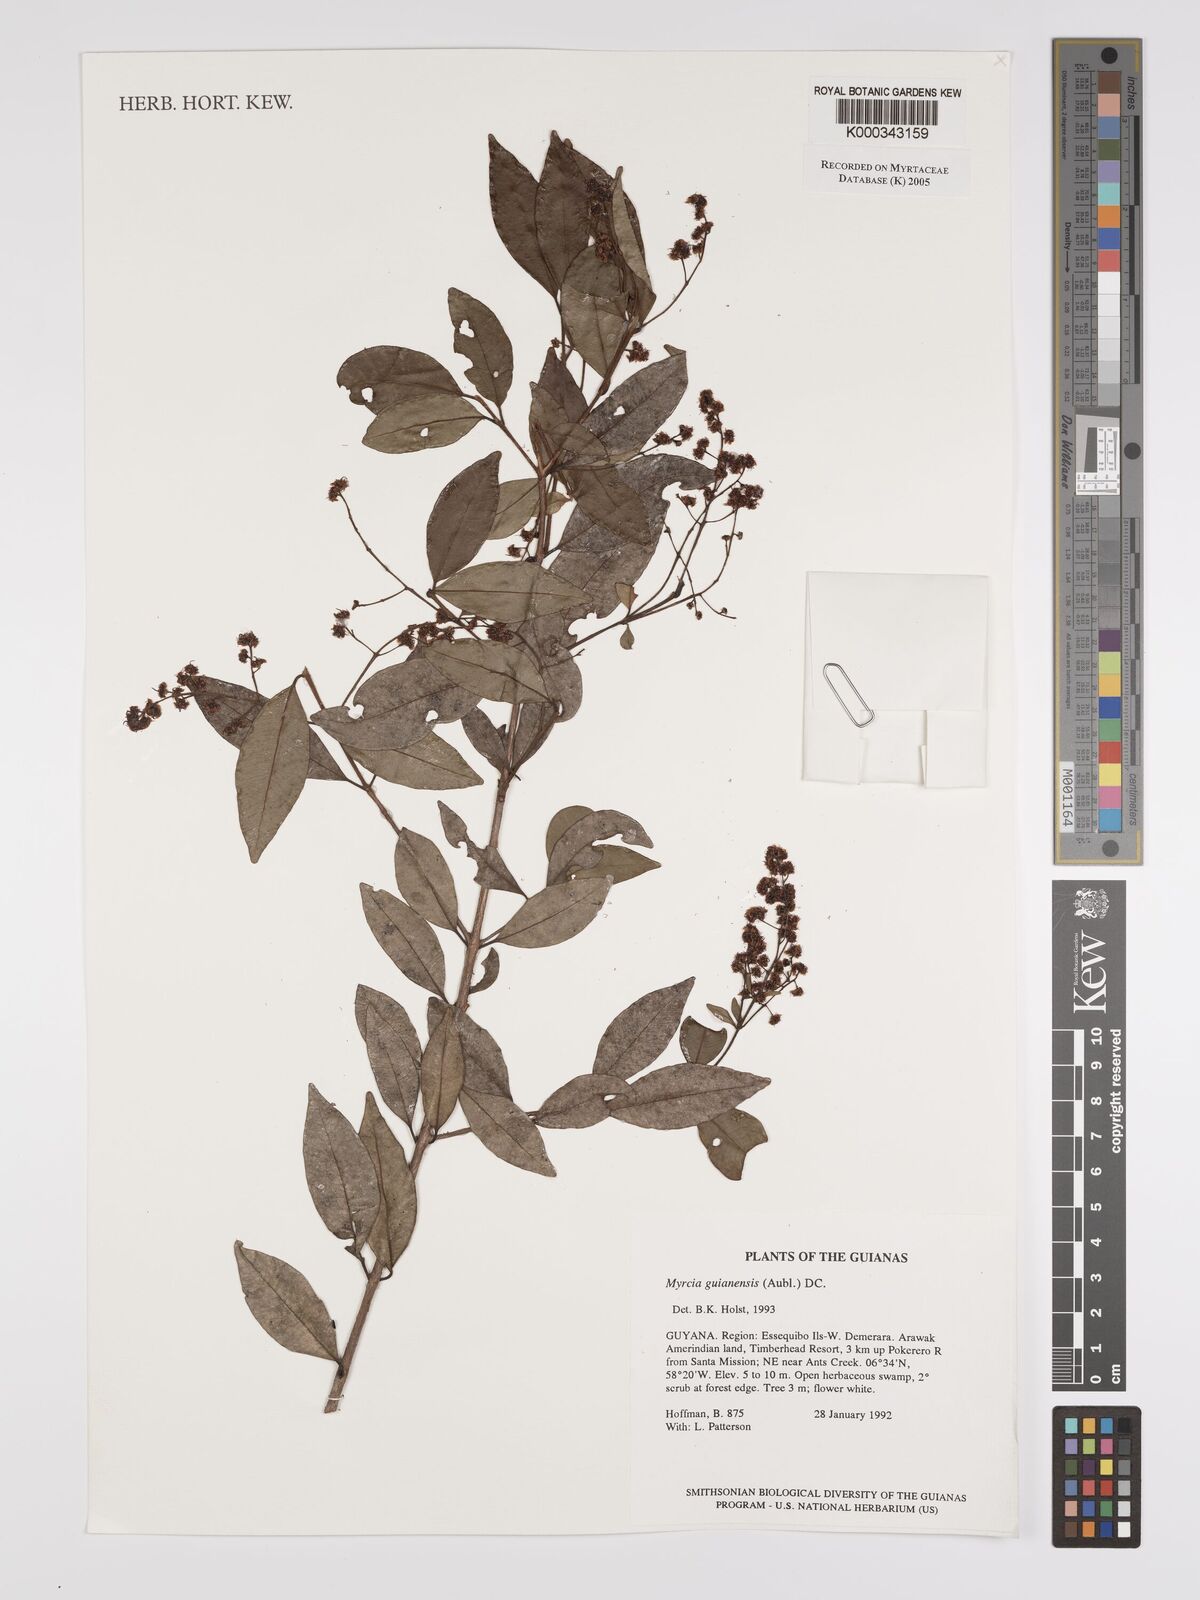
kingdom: Plantae
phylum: Tracheophyta
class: Magnoliopsida
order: Myrtales
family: Myrtaceae
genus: Myrcia
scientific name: Myrcia guianensis
